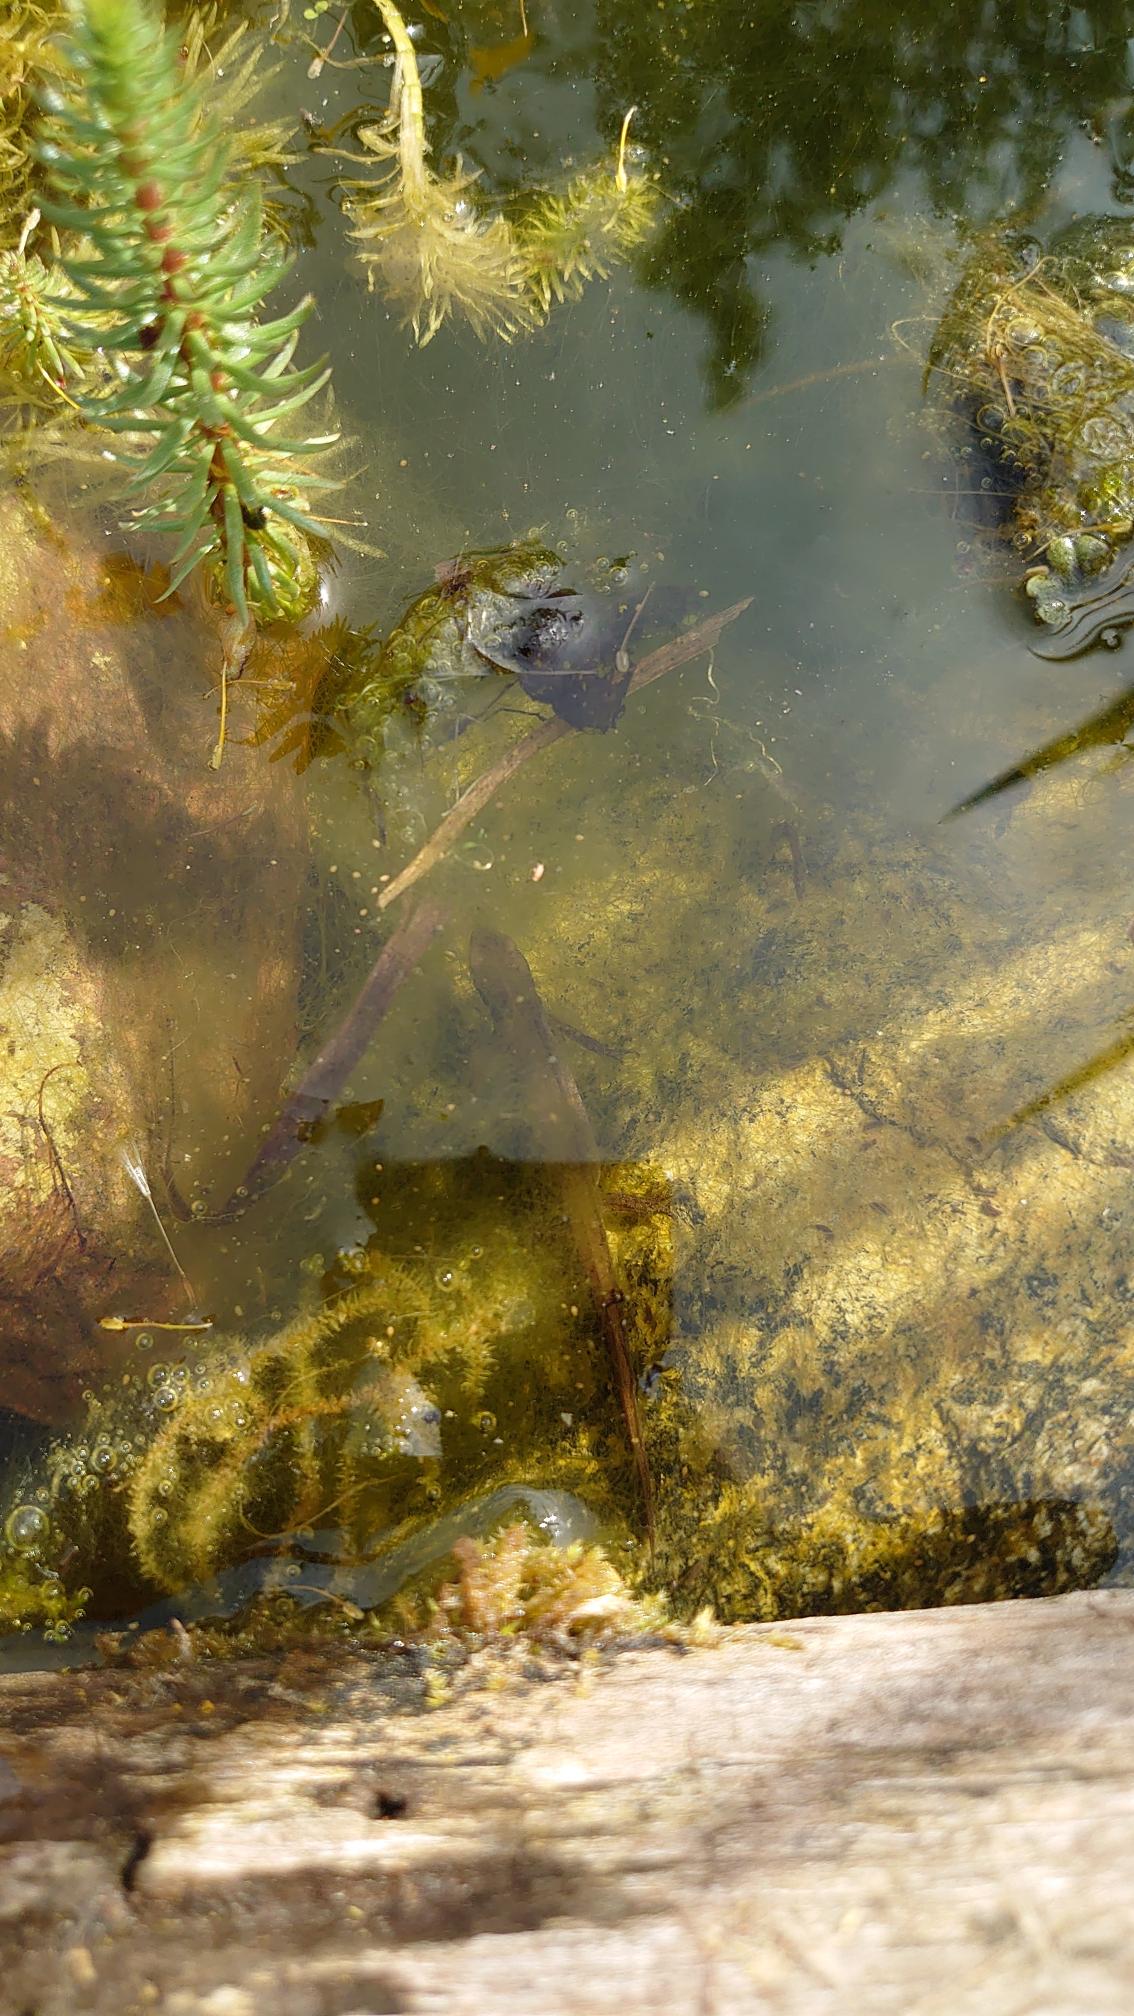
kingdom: Animalia
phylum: Chordata
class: Amphibia
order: Caudata
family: Salamandridae
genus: Lissotriton
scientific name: Lissotriton vulgaris
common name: Lille vandsalamander
